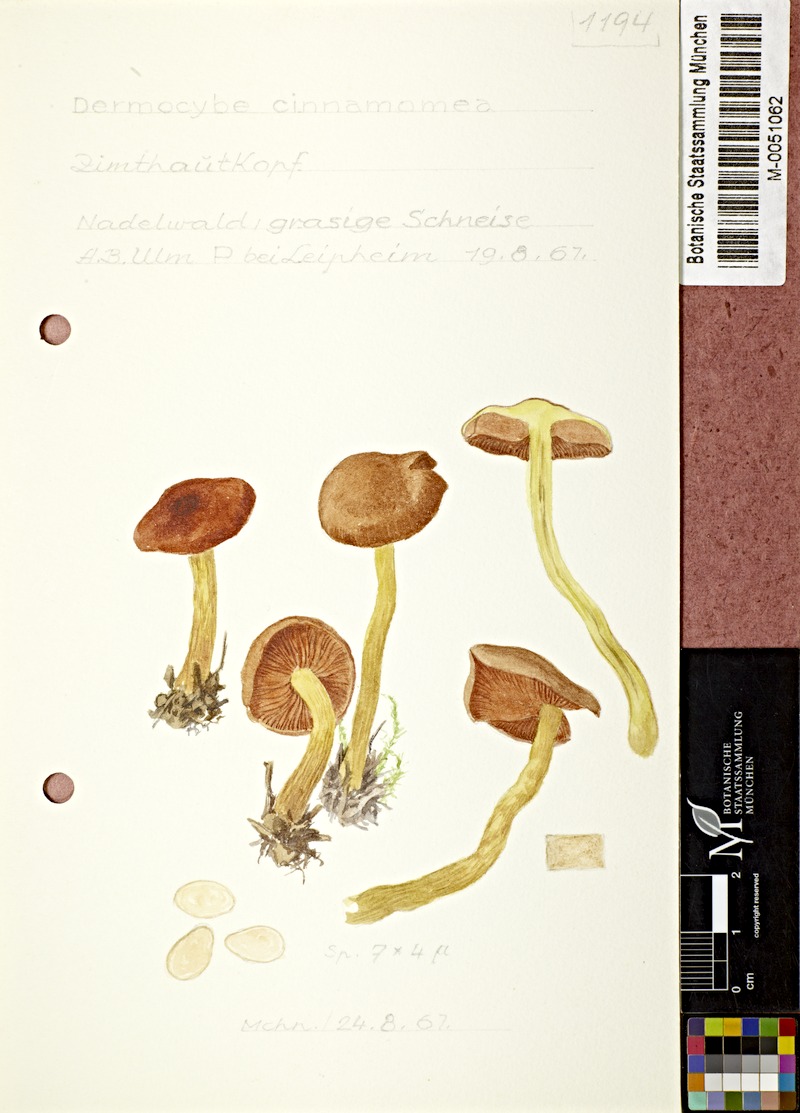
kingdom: Fungi
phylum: Basidiomycota
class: Agaricomycetes
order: Agaricales
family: Cortinariaceae
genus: Cortinarius
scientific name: Cortinarius cinnamomeus
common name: Cinnamon webcap
